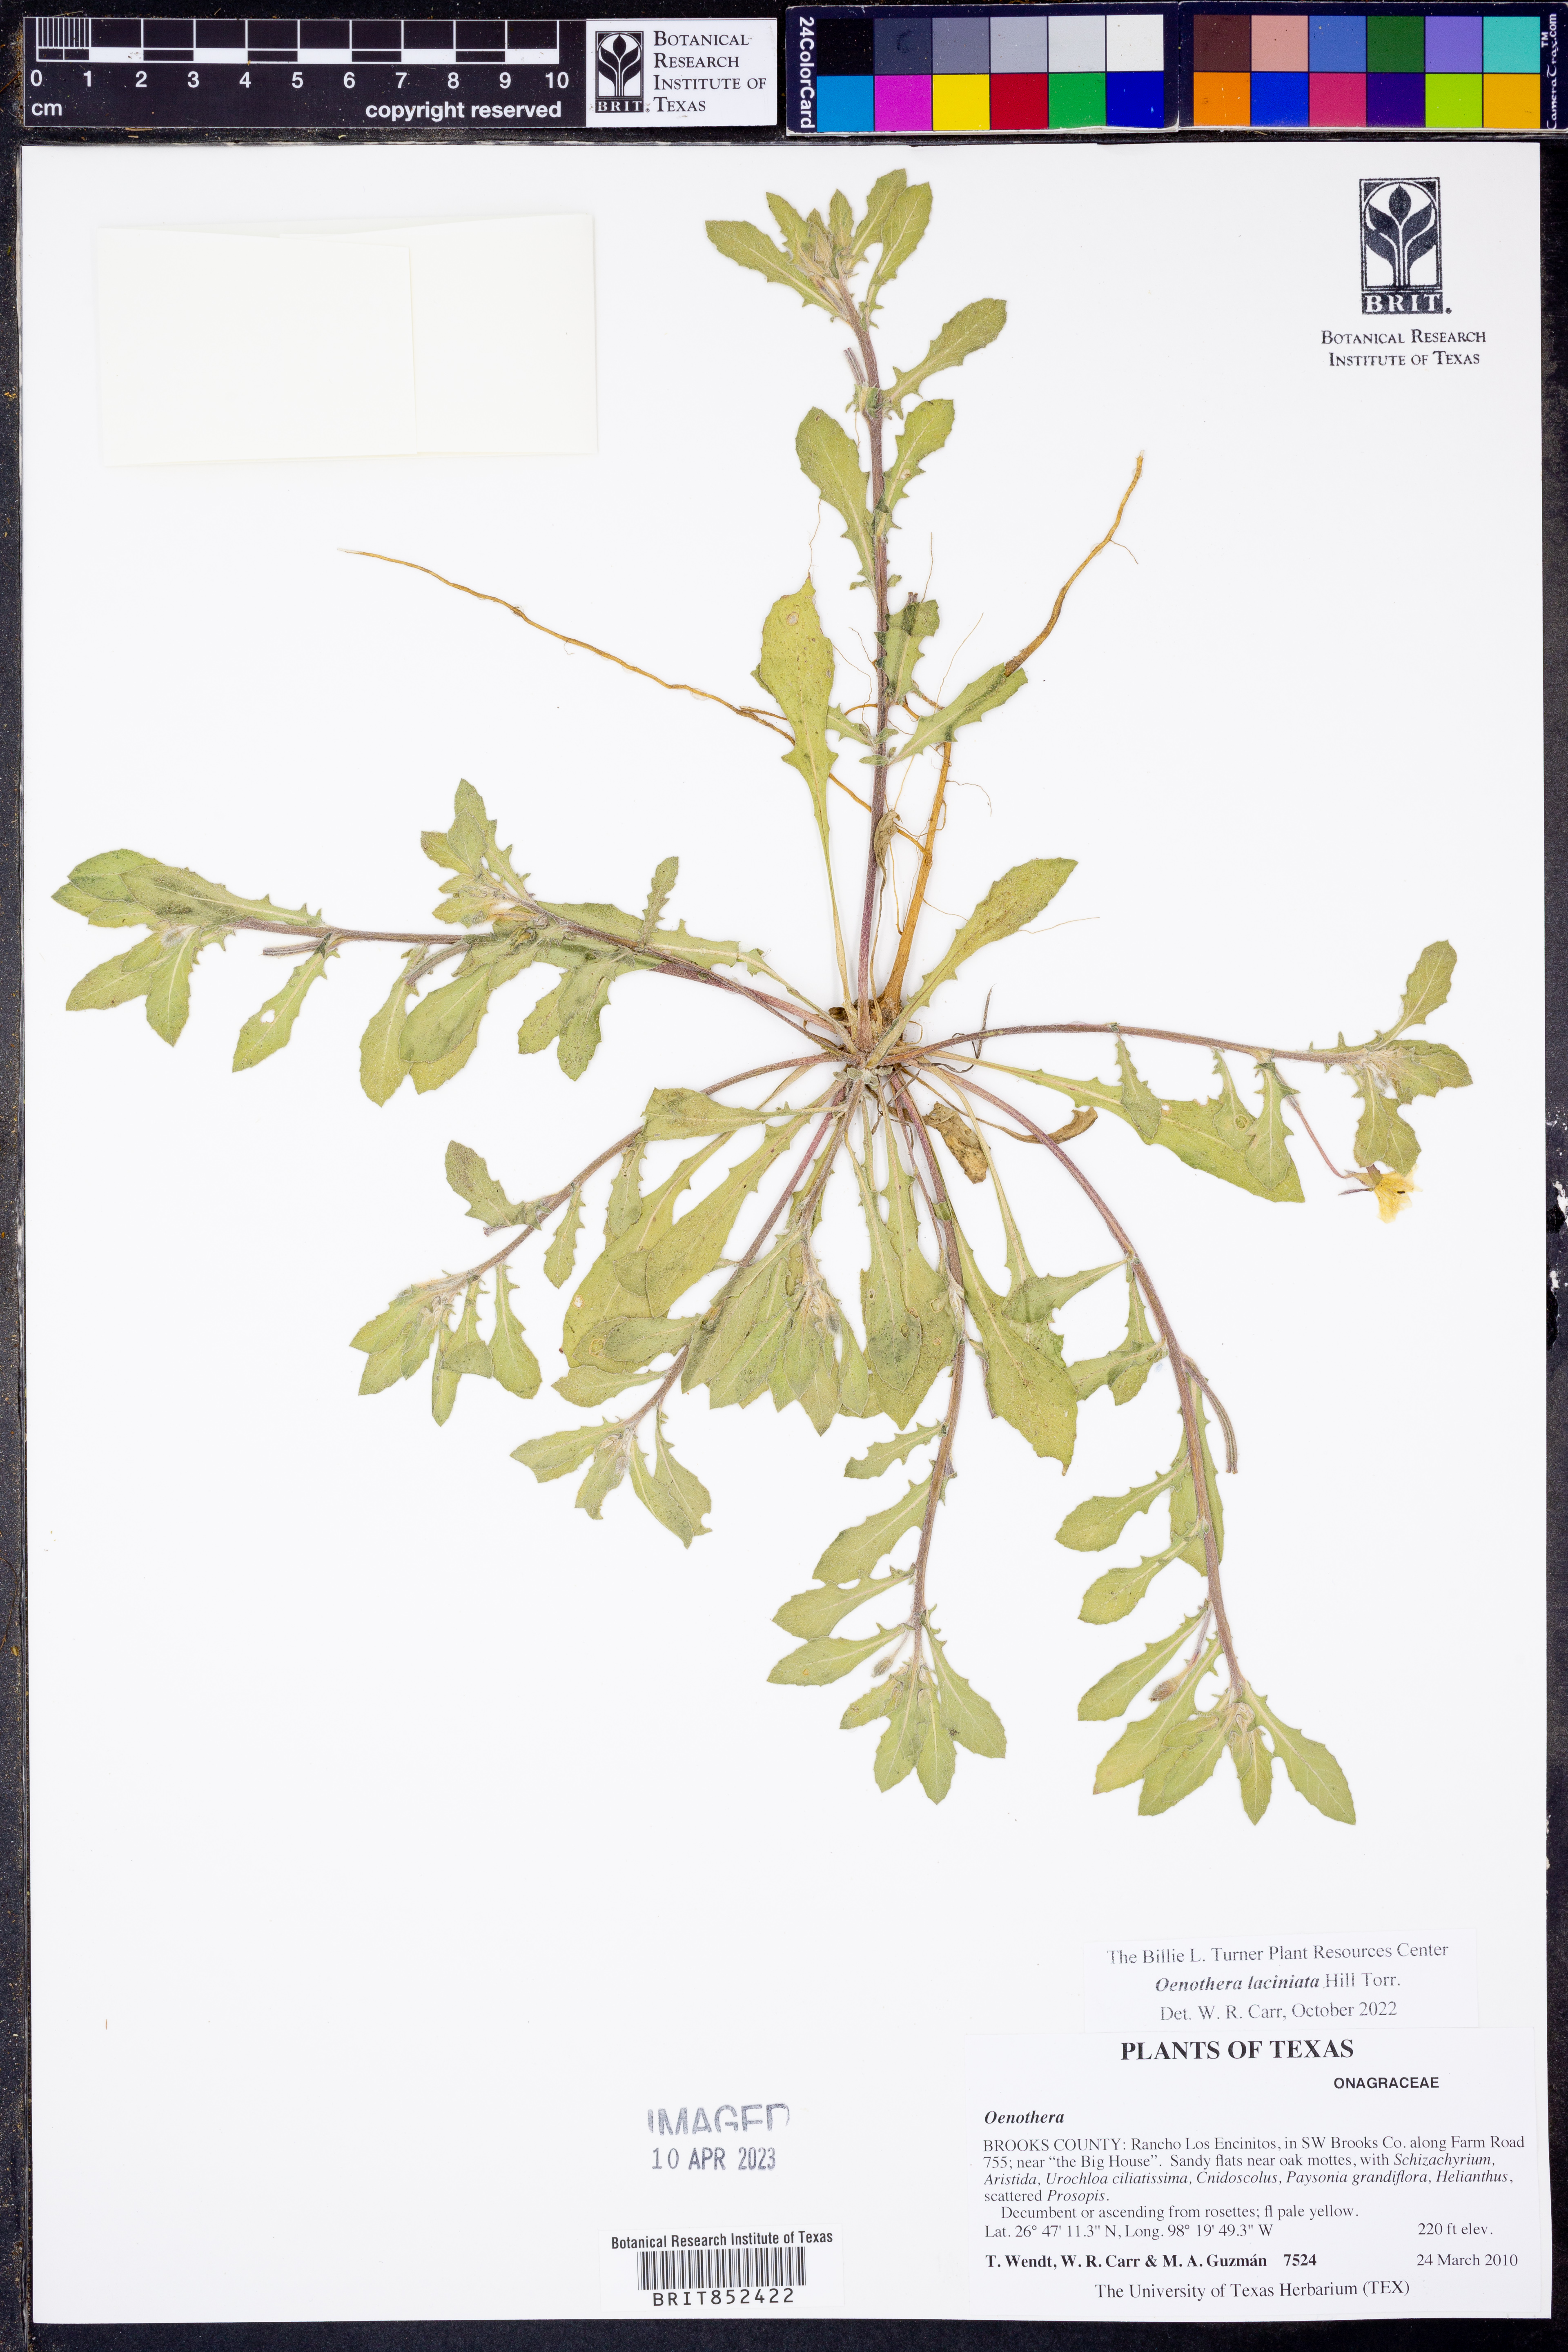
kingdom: Plantae
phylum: Tracheophyta
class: Magnoliopsida
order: Myrtales
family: Onagraceae
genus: Oenothera
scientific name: Oenothera laciniata
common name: Cut-leaved evening-primrose
